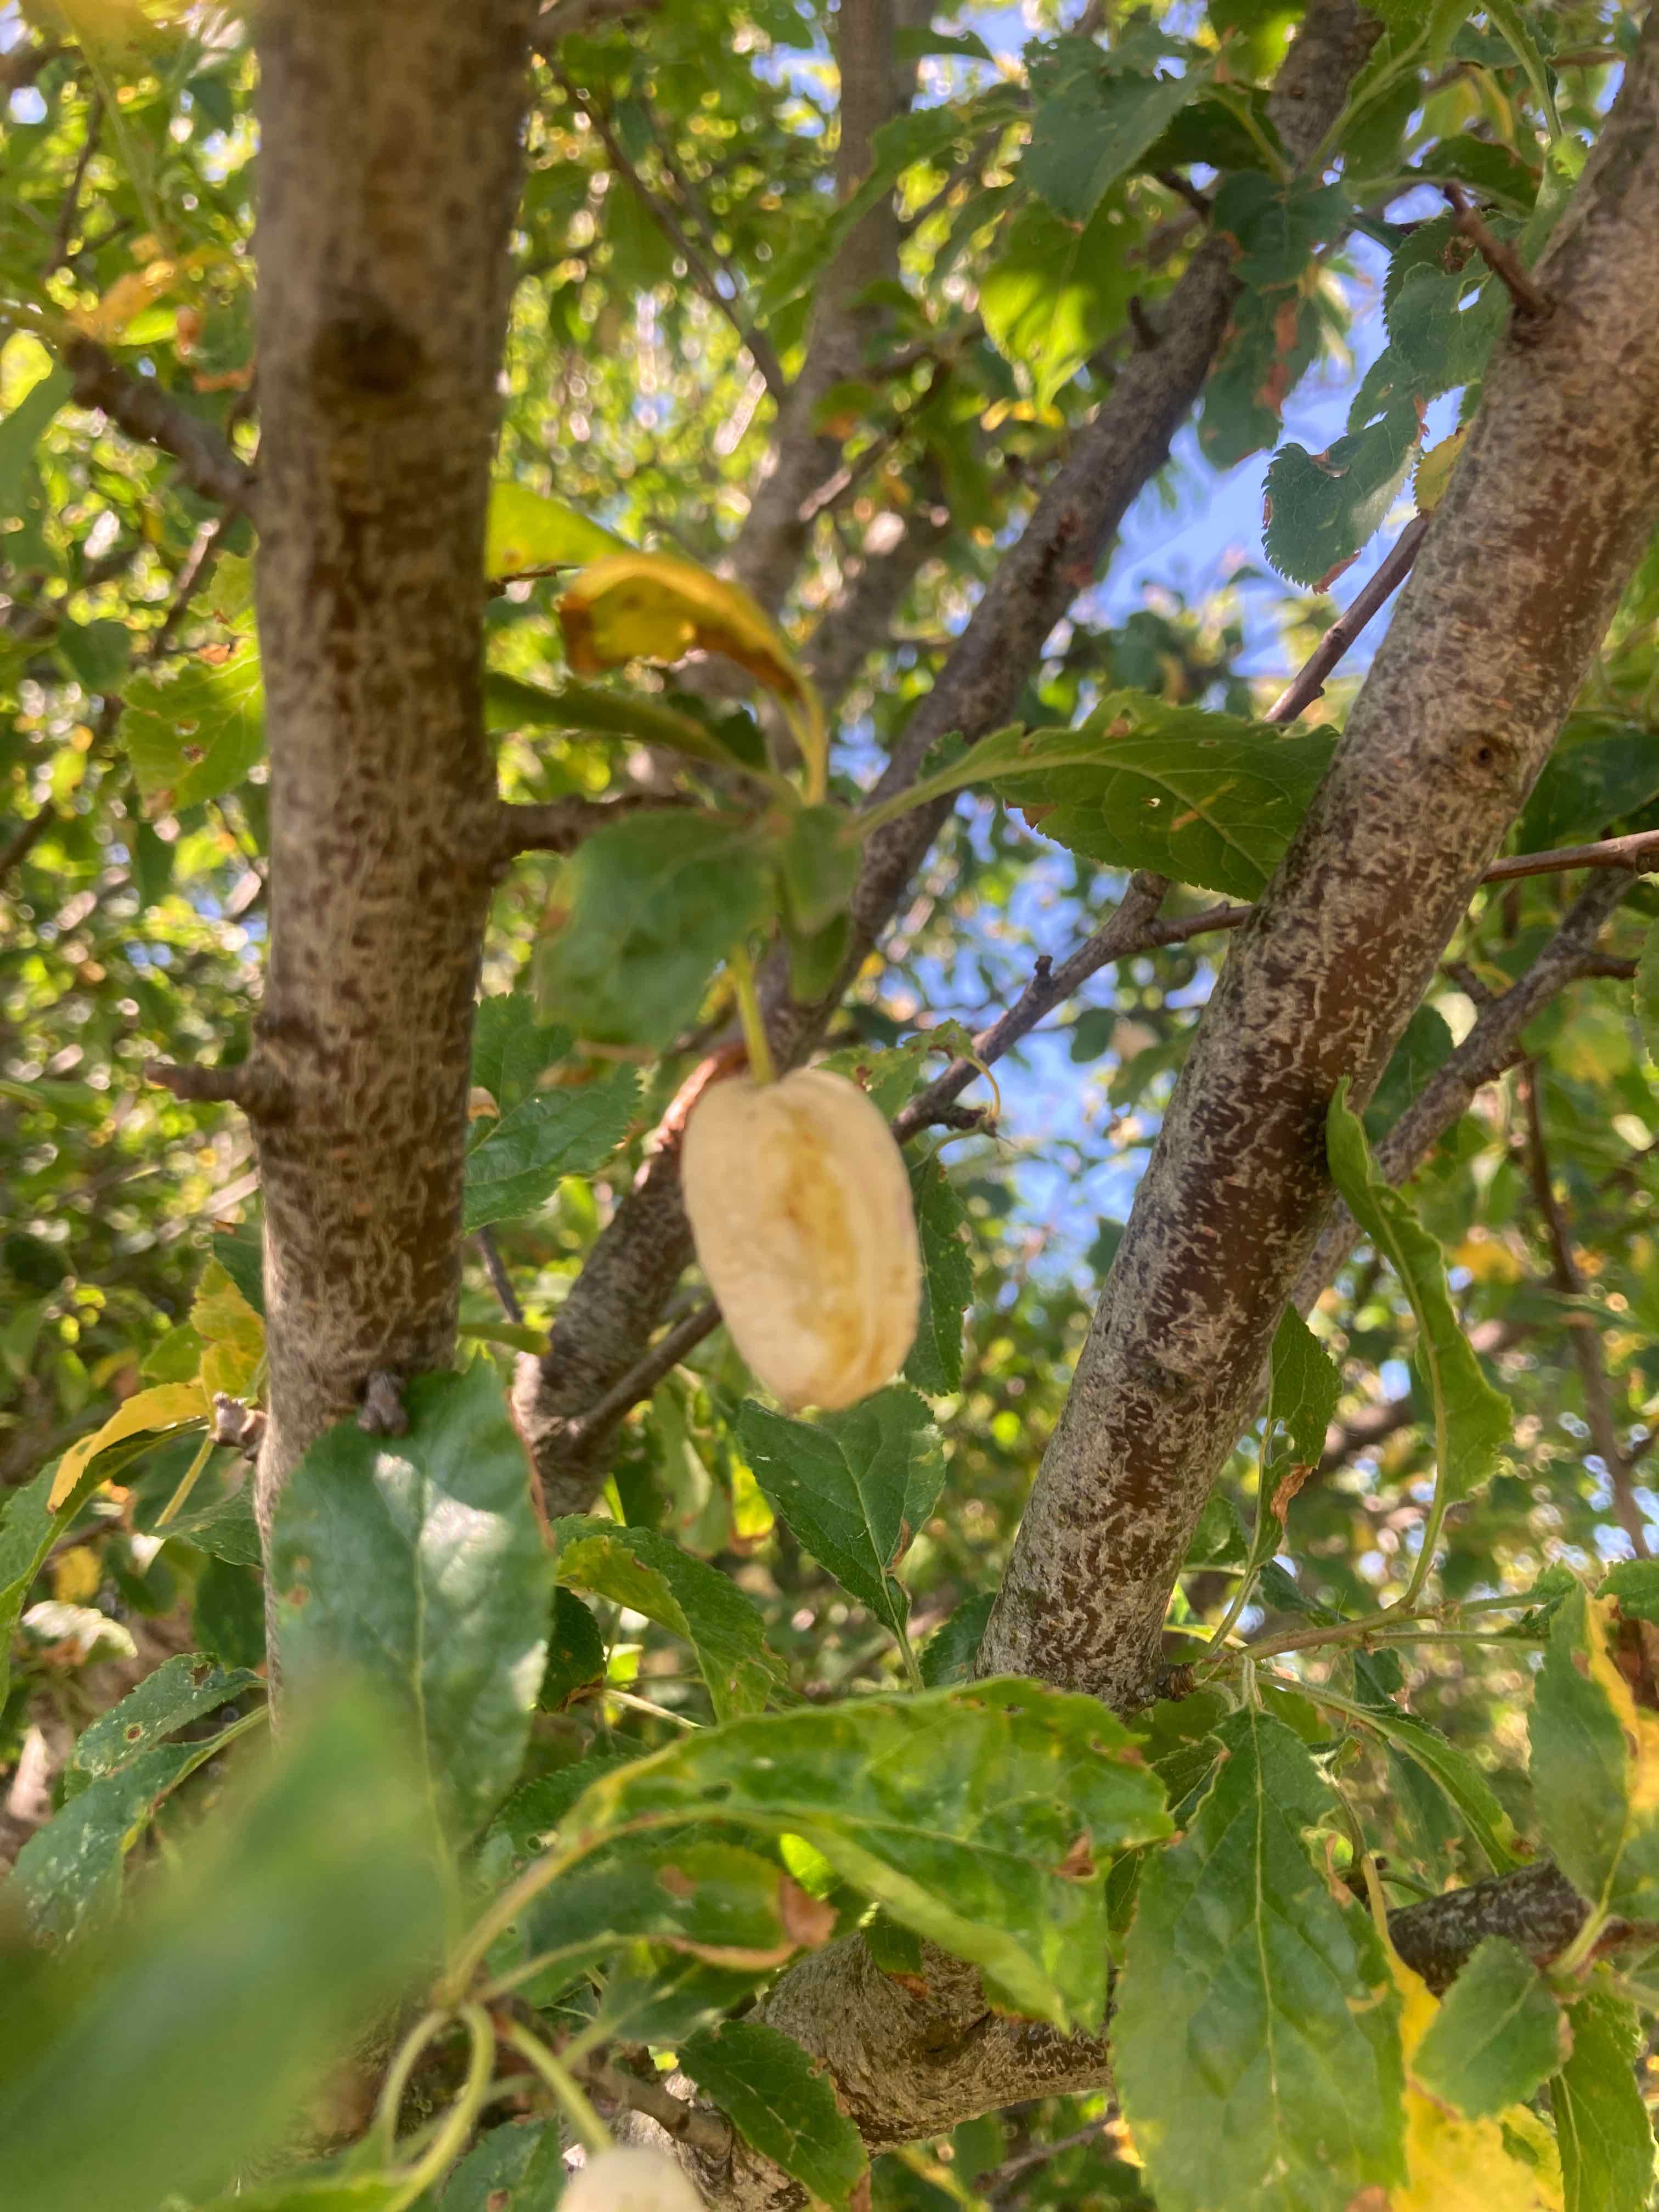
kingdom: Fungi
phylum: Ascomycota
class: Taphrinomycetes
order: Taphrinales
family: Taphrinaceae
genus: Taphrina
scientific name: Taphrina pruni
